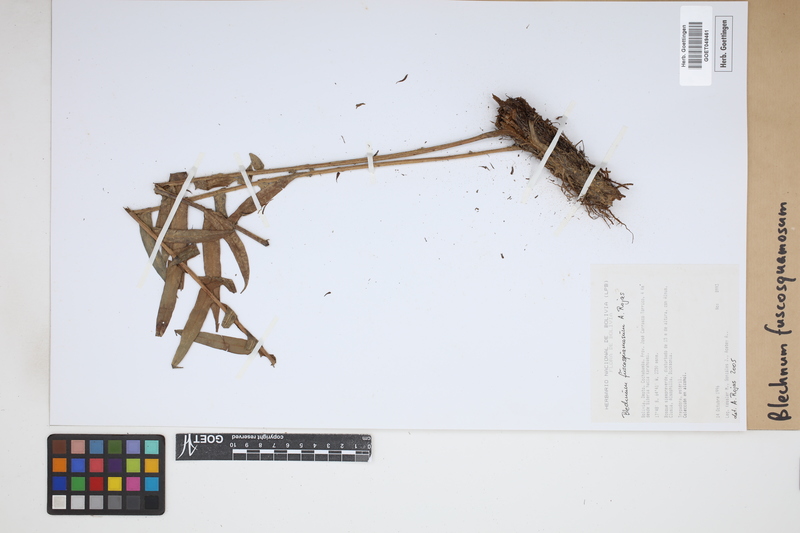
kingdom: Plantae
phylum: Tracheophyta
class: Polypodiopsida
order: Polypodiales
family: Blechnaceae
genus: Lomaridium
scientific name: Lomaridium fuscosquamosum
